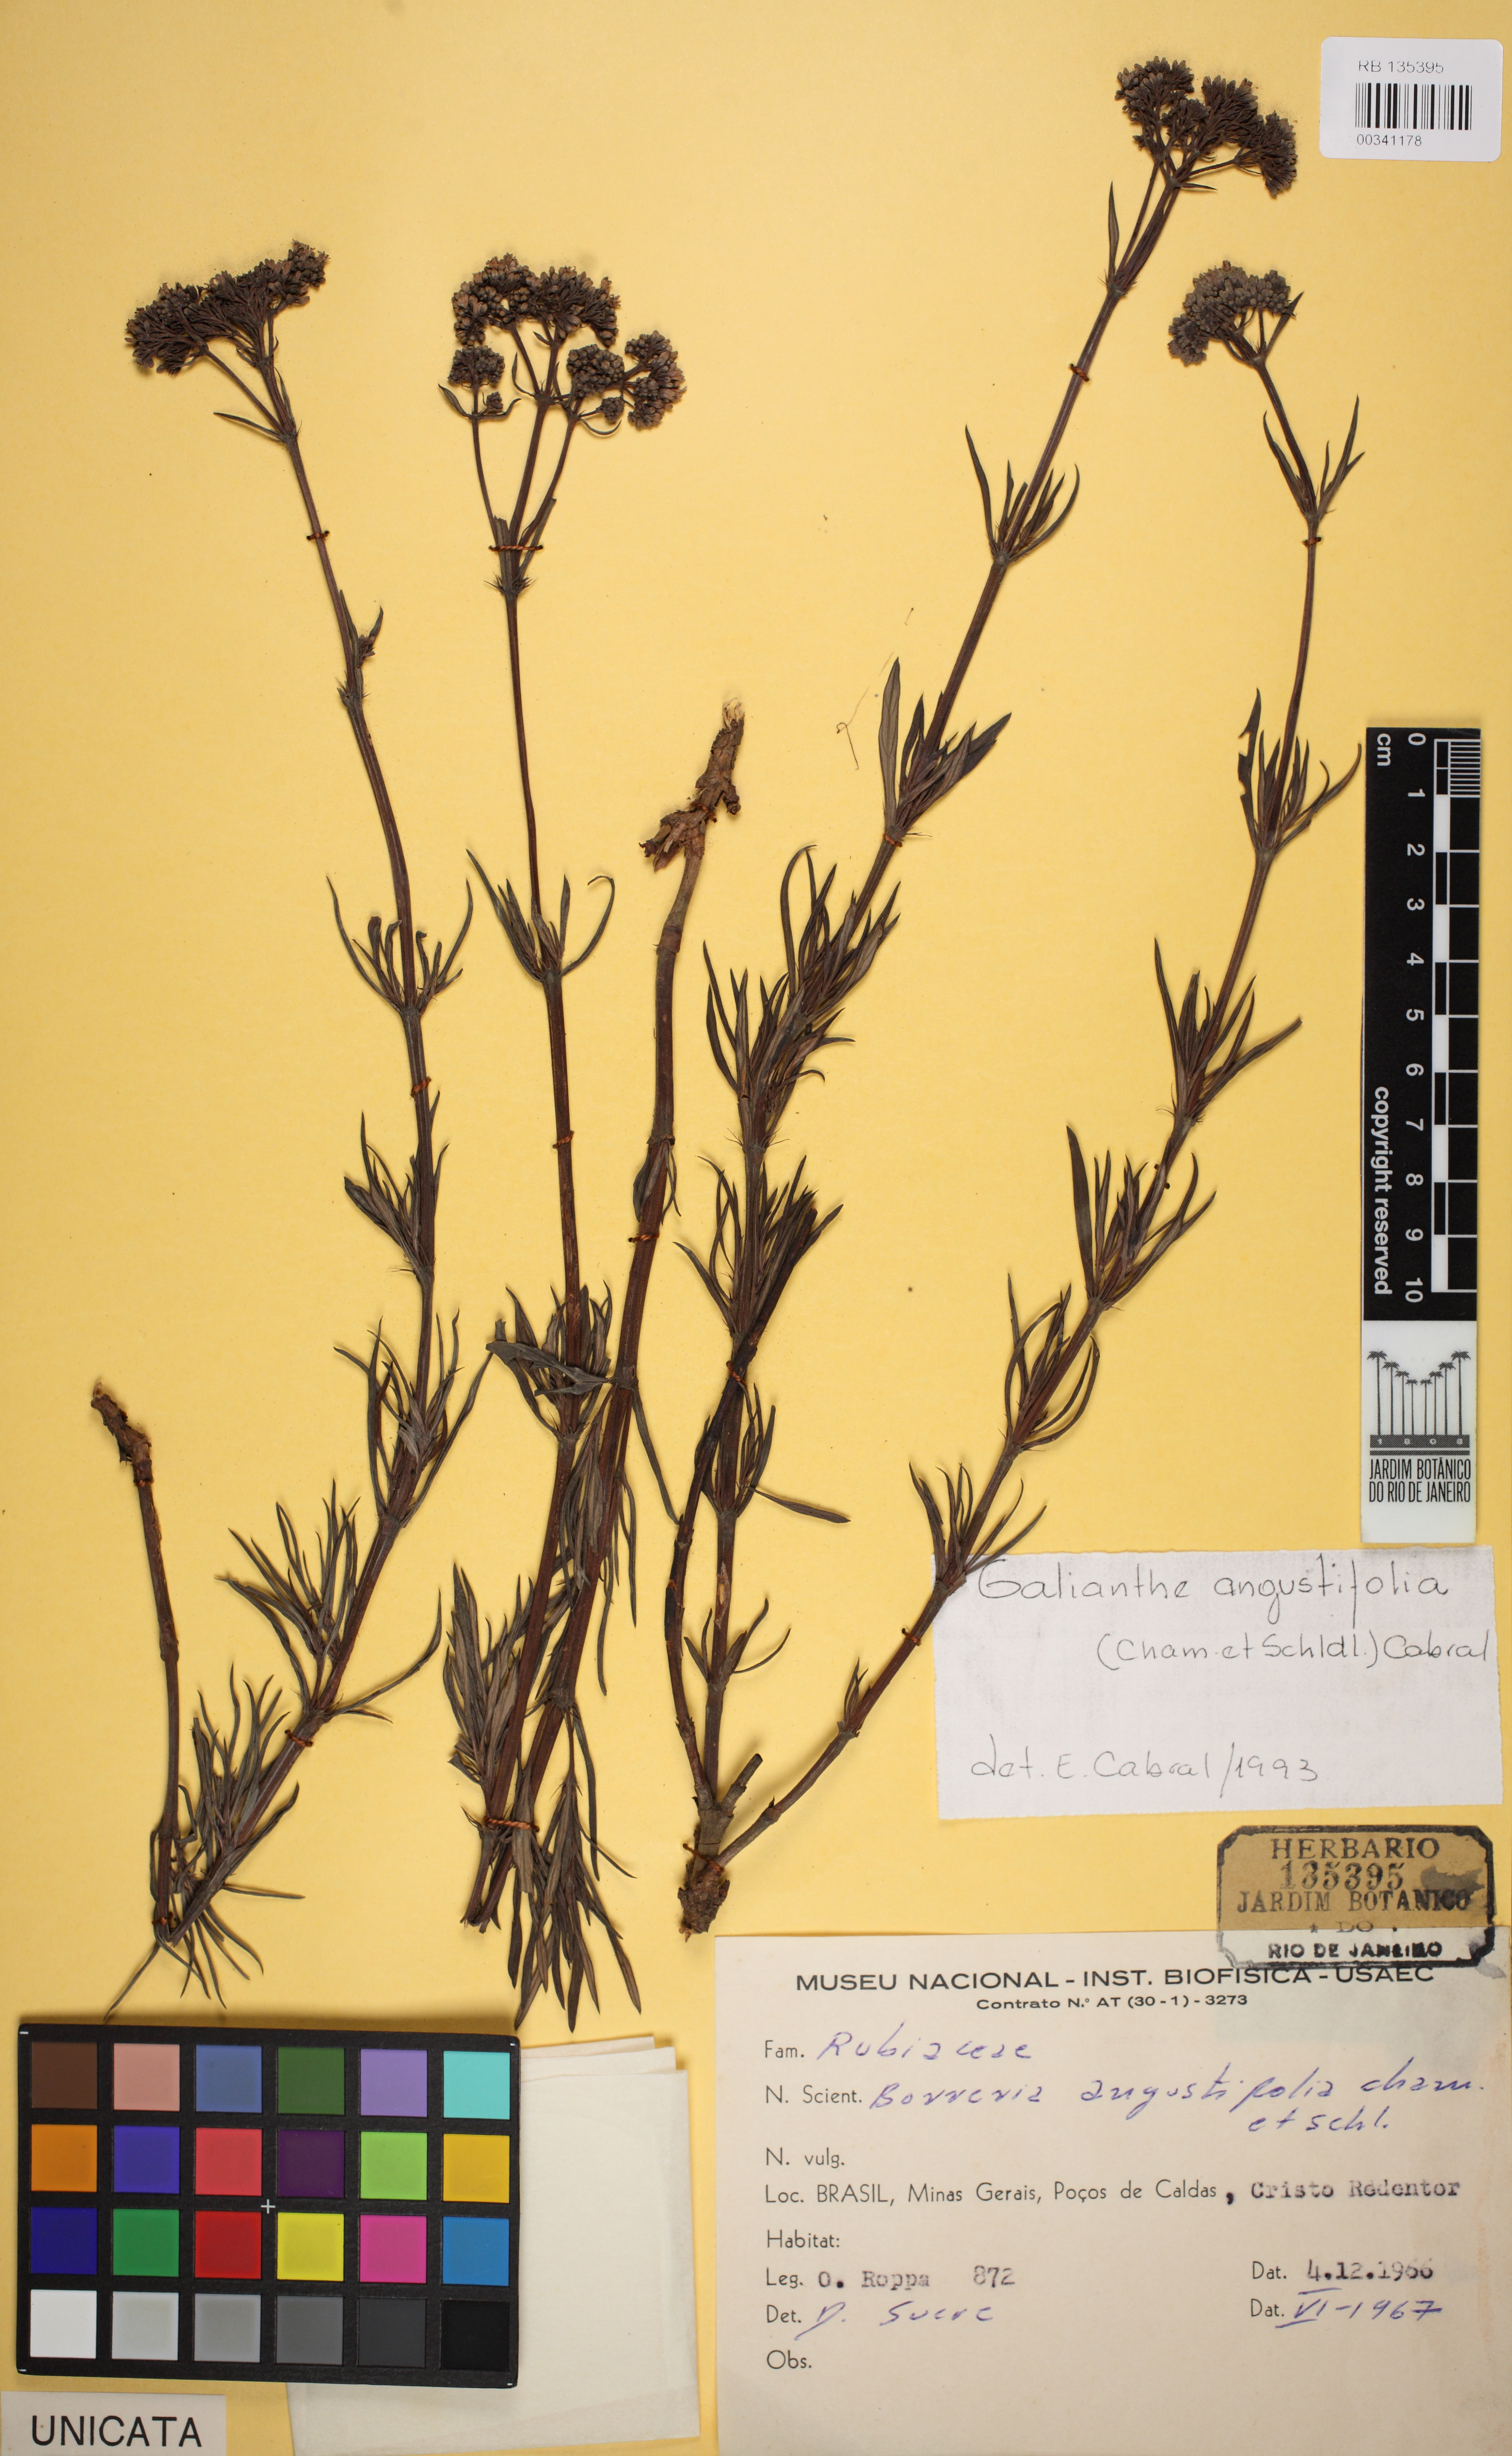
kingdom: Plantae
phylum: Tracheophyta
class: Magnoliopsida
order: Gentianales
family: Rubiaceae
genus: Galianthe
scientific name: Galianthe angustifolia
